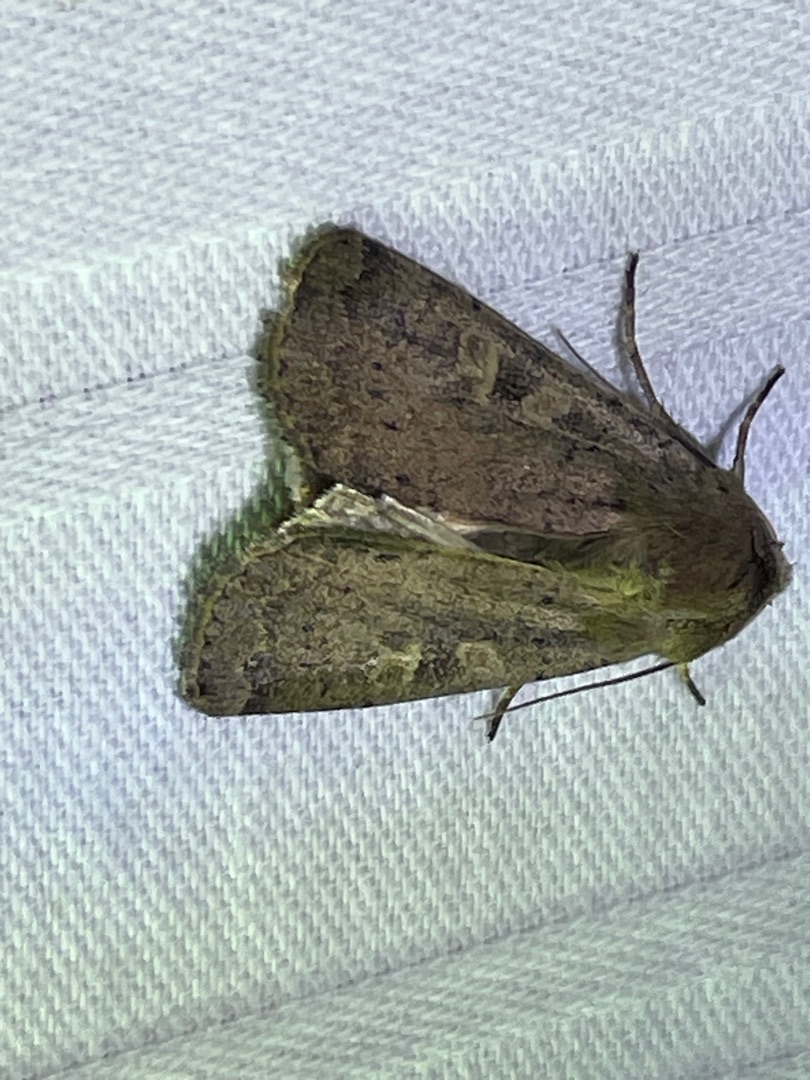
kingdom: Animalia
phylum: Arthropoda
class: Insecta
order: Lepidoptera
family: Noctuidae
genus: Xestia
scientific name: Xestia xanthographa
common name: Gulmærket glansugle
